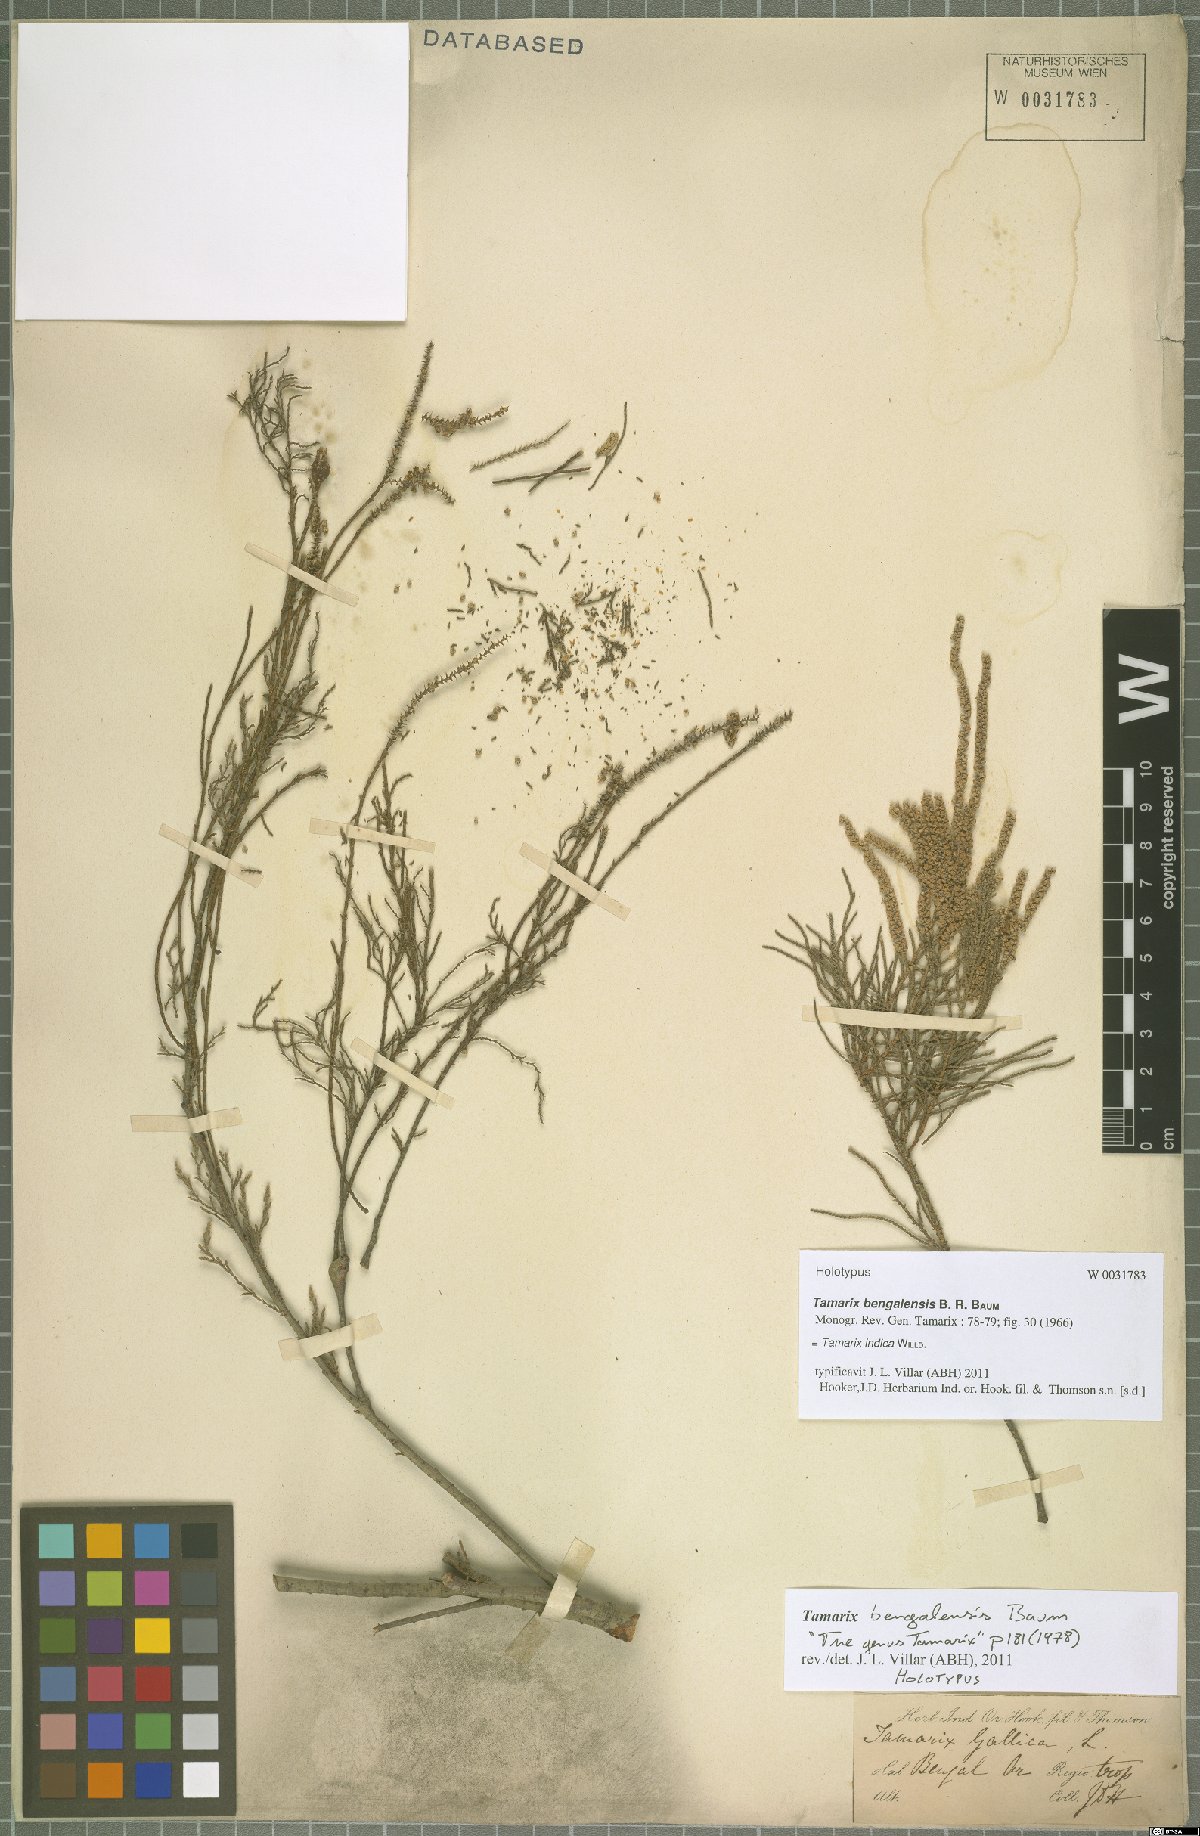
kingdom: Plantae
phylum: Tracheophyta
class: Magnoliopsida
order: Caryophyllales
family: Tamaricaceae
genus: Tamarix
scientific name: Tamarix indica
